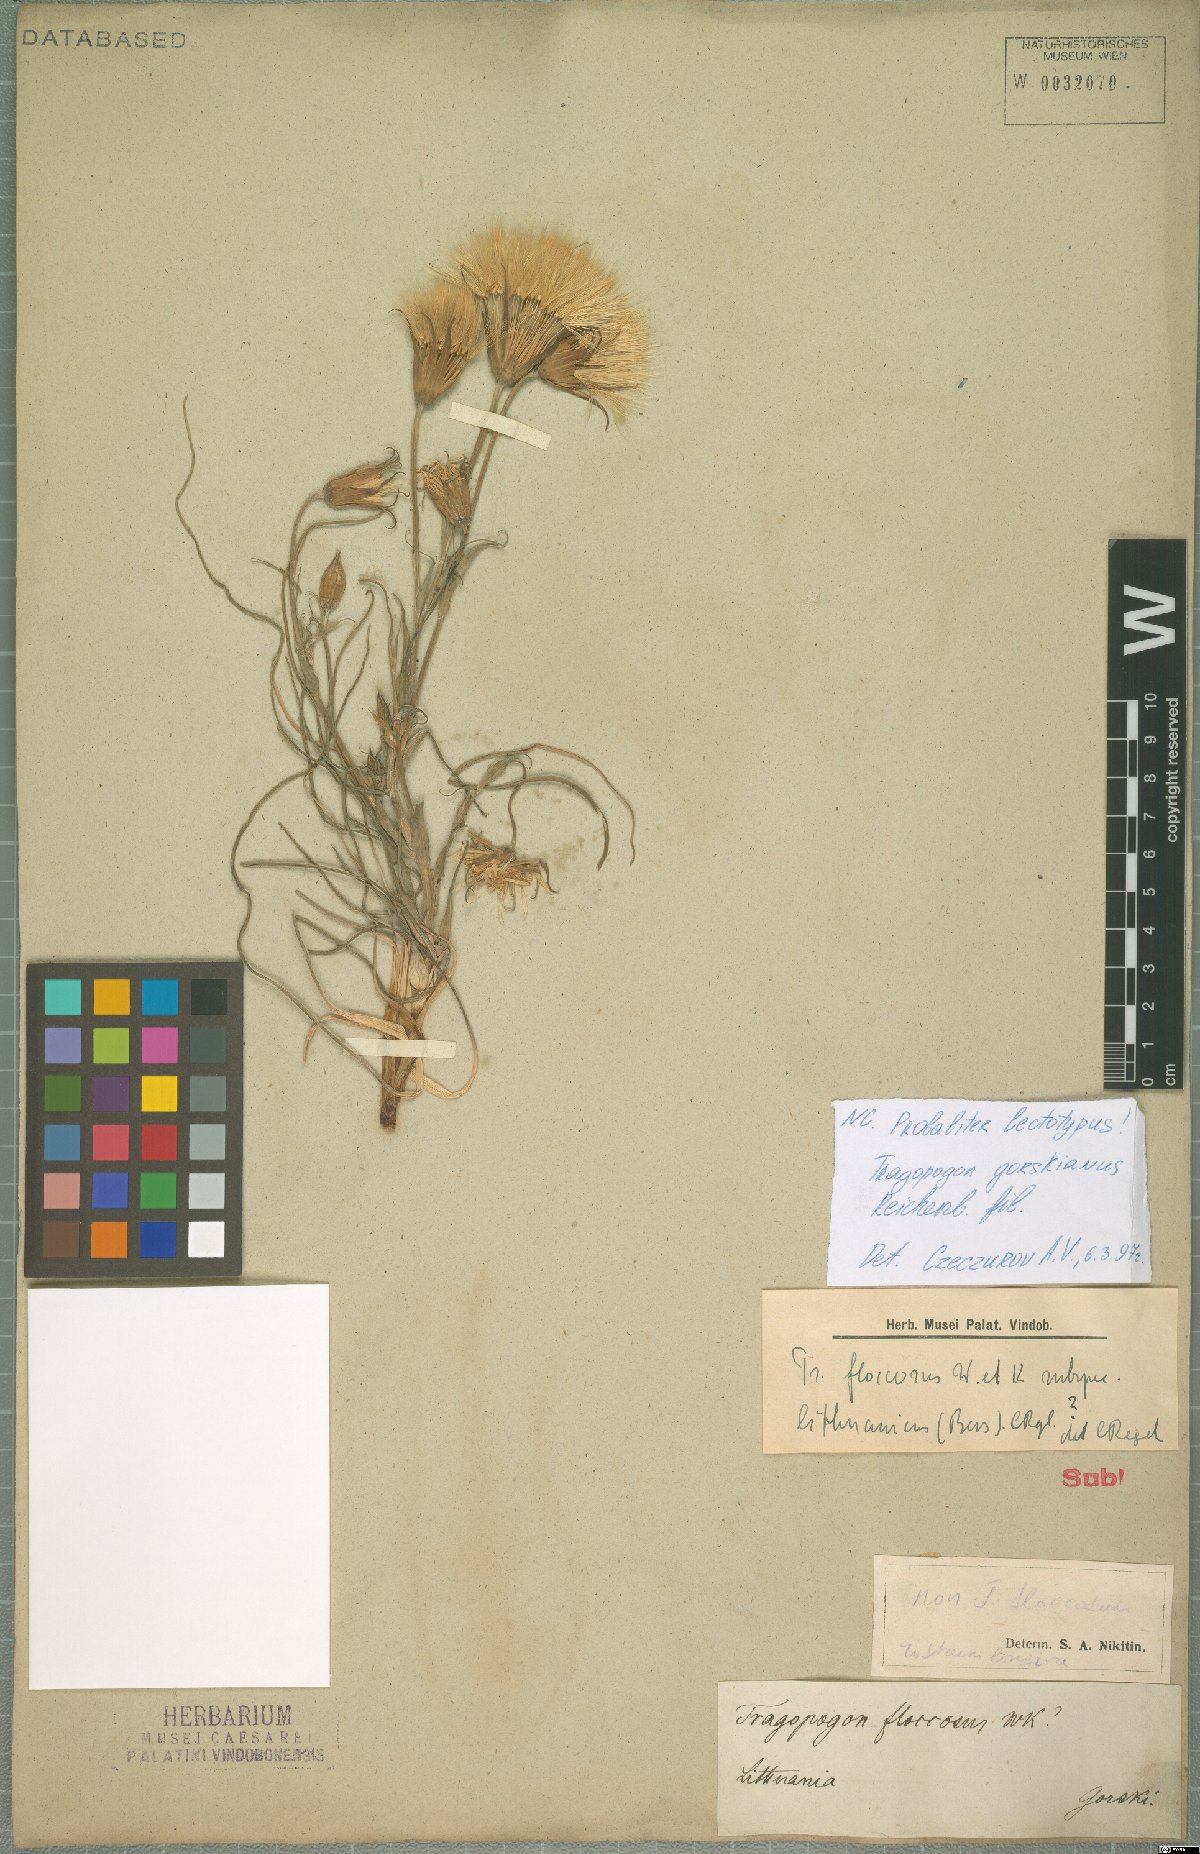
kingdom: Plantae
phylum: Tracheophyta
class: Magnoliopsida
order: Asterales
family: Asteraceae
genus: Tragopogon
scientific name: Tragopogon gorskianus
